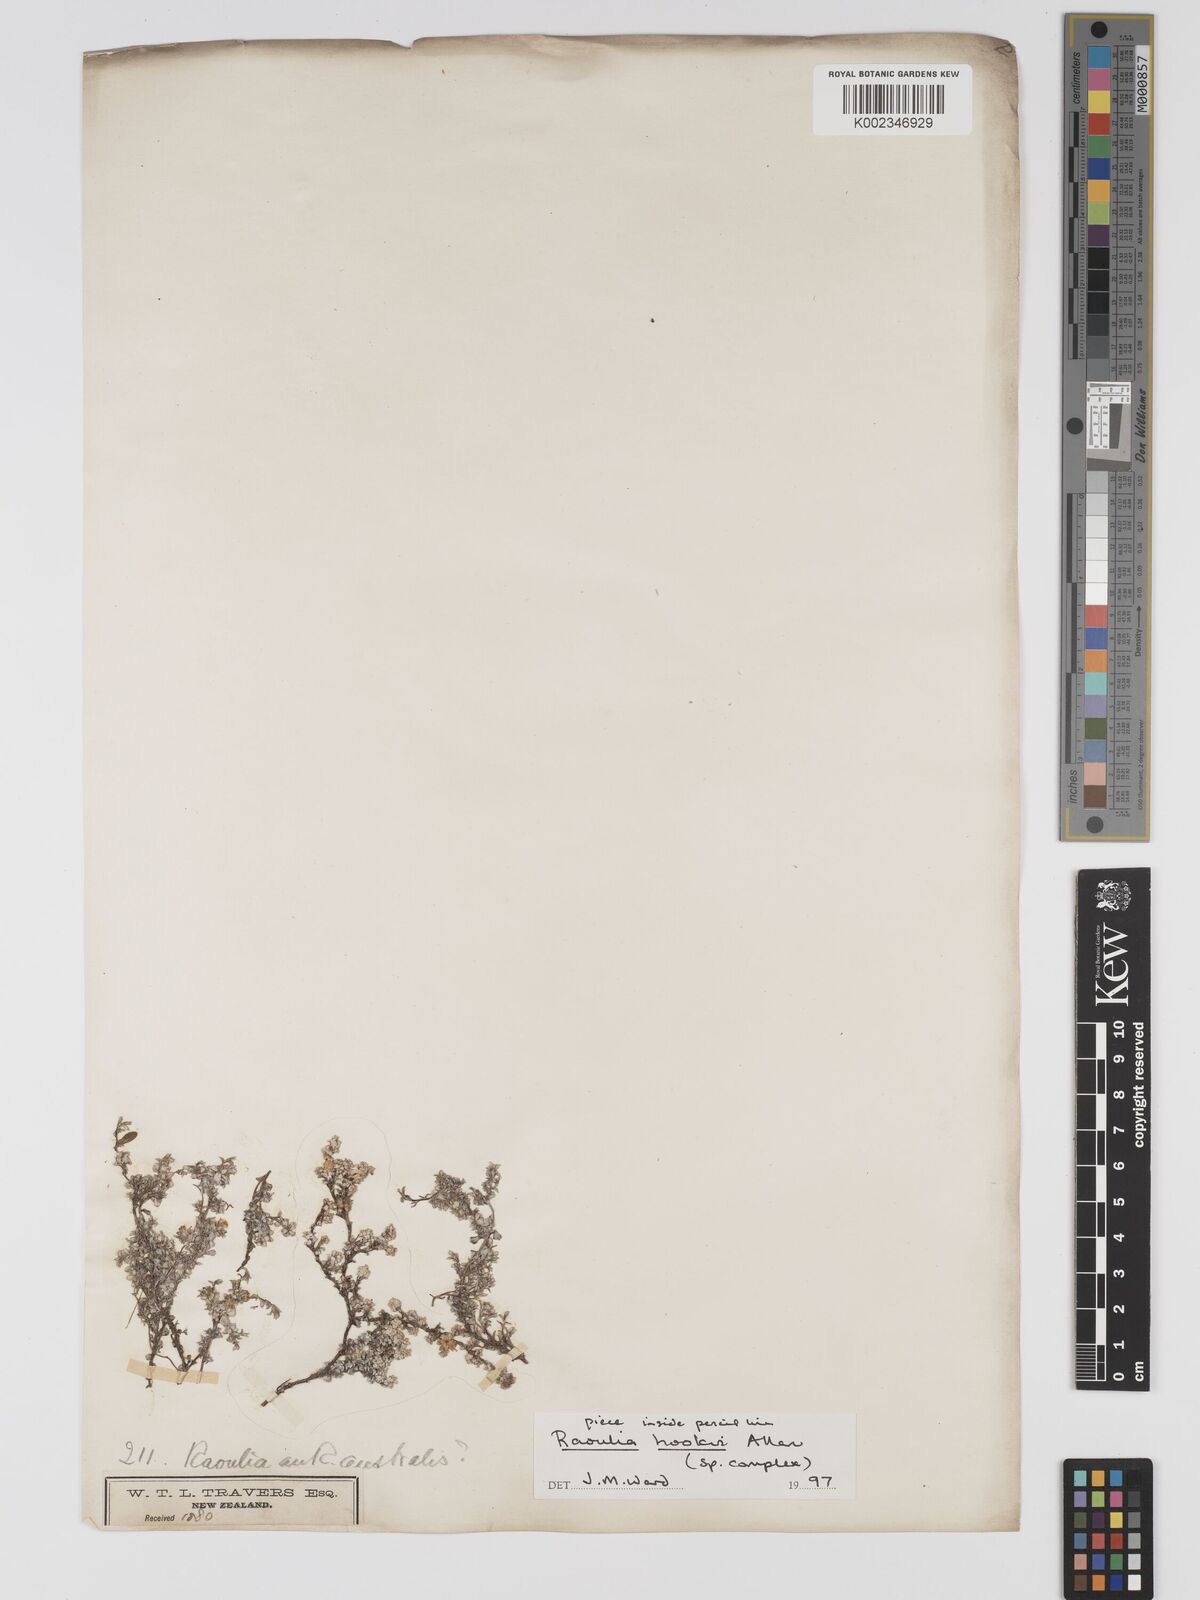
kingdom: Plantae
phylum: Tracheophyta
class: Magnoliopsida
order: Asterales
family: Asteraceae
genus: Raoulia
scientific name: Raoulia
